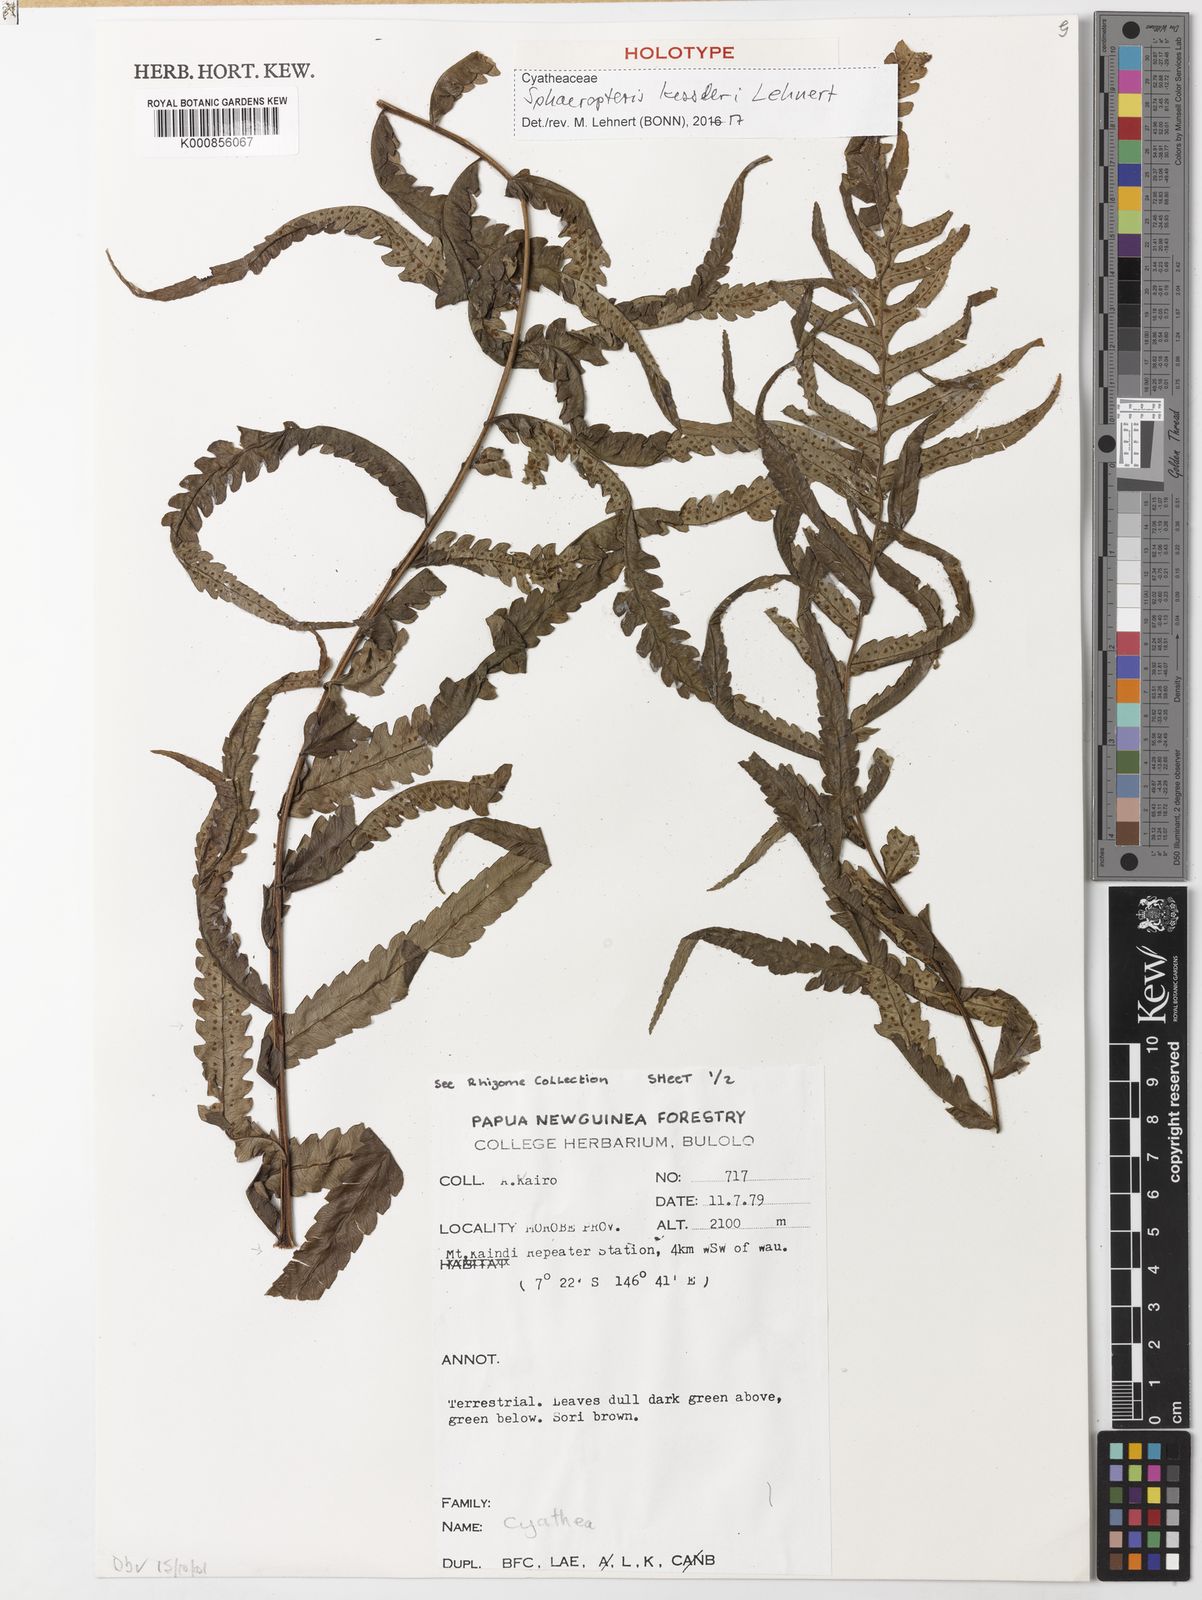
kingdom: Plantae
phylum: Tracheophyta
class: Polypodiopsida
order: Cyatheales
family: Cyatheaceae
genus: Sphaeropteris
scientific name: Sphaeropteris kessleri
